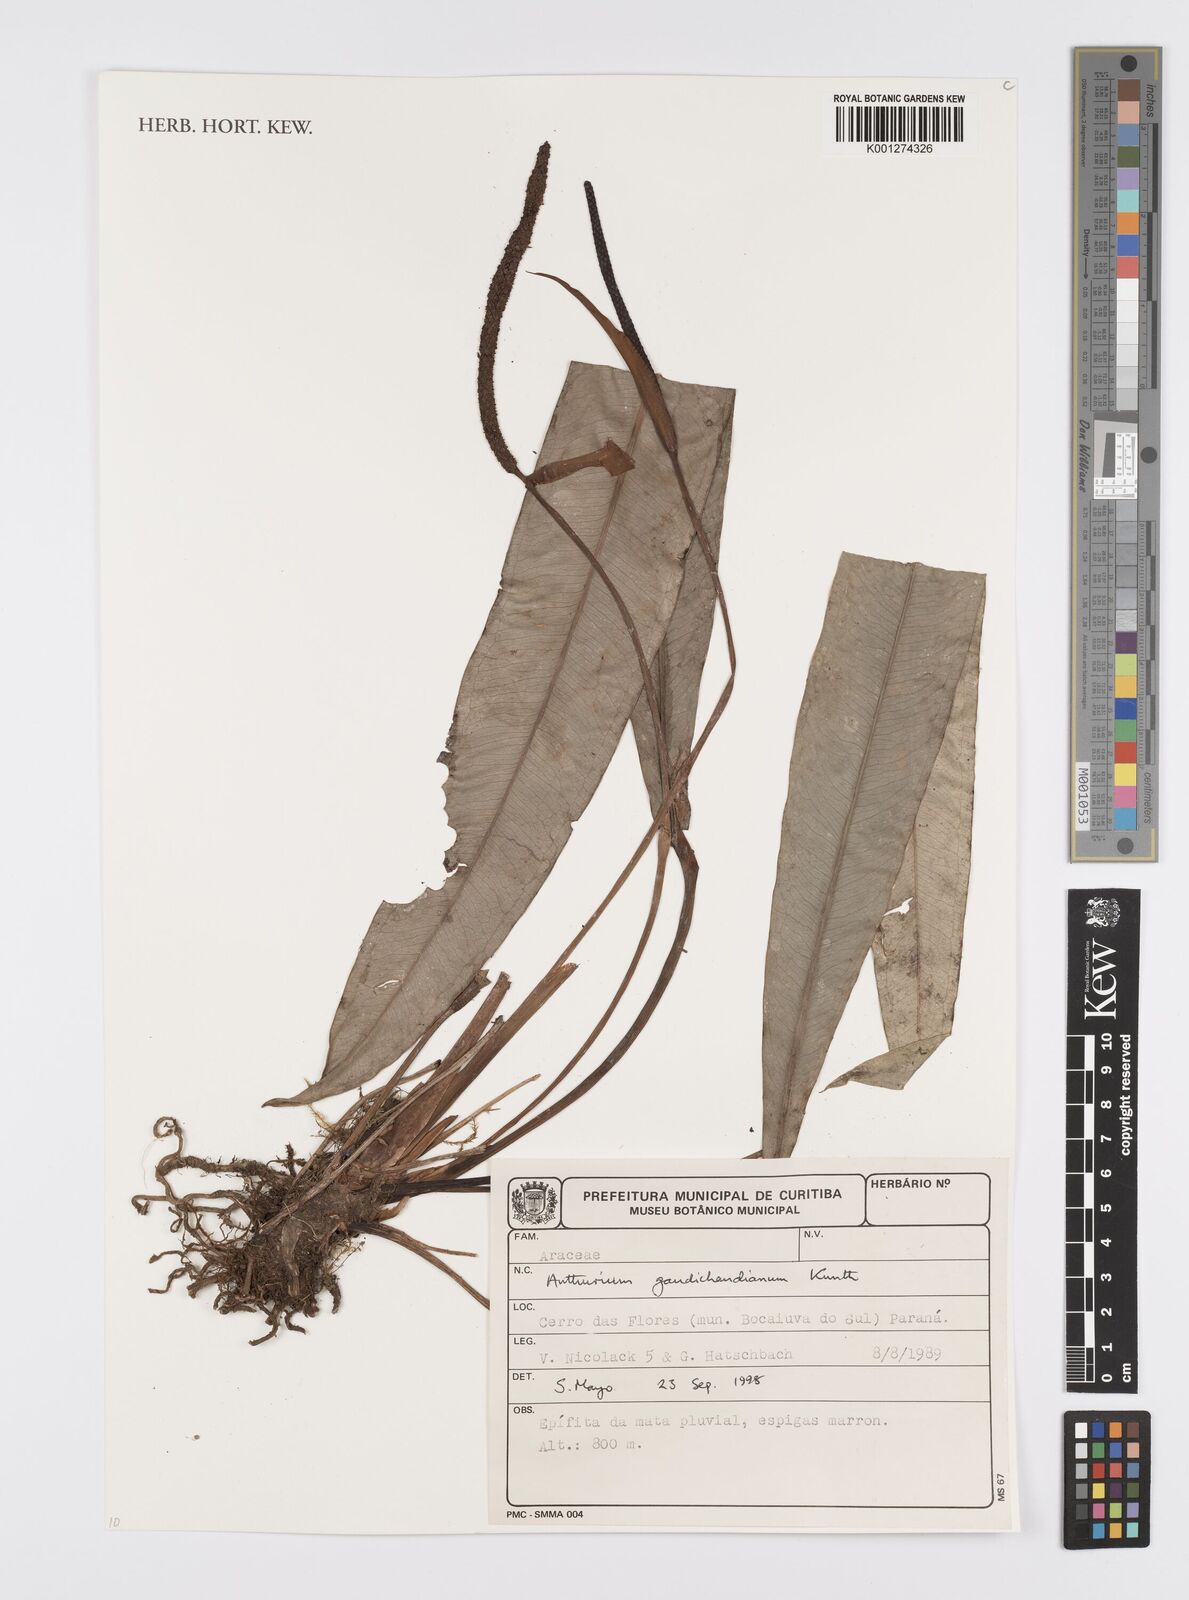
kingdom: Plantae
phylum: Tracheophyta
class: Liliopsida
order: Alismatales
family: Araceae
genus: Anthurium
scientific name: Anthurium gaudichaudianum
